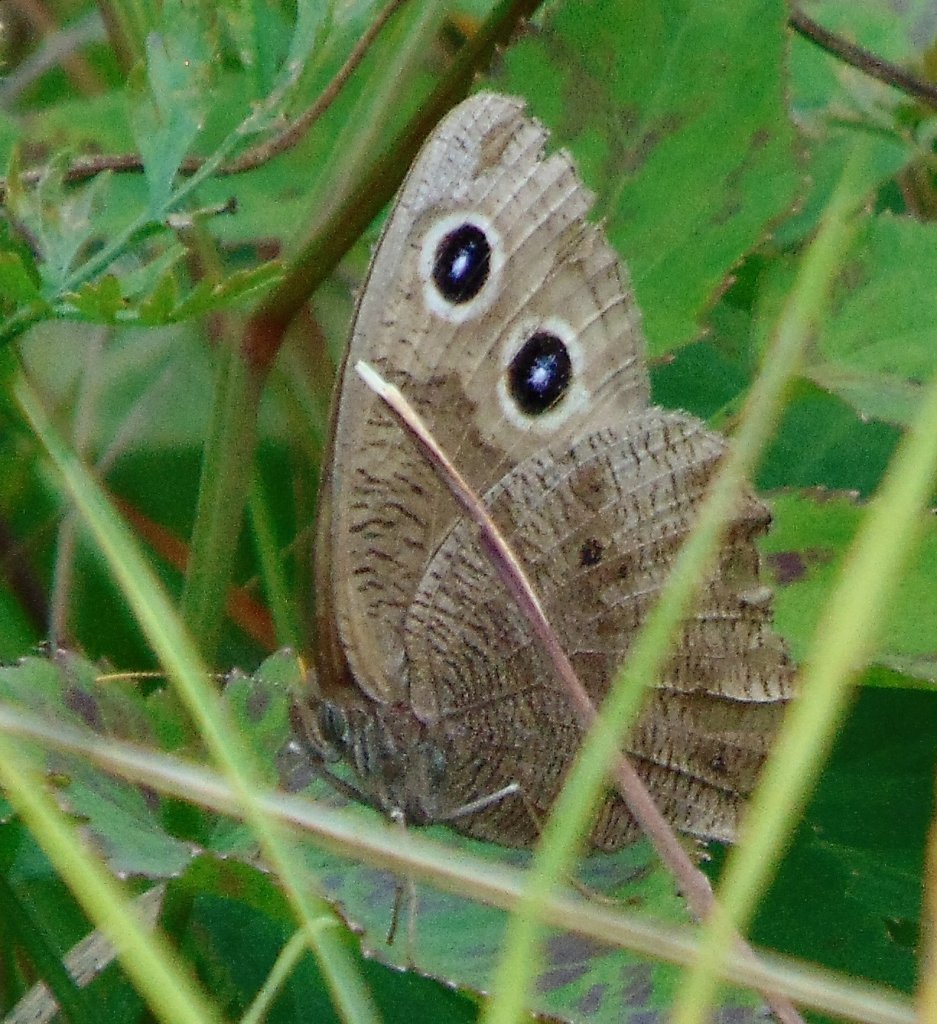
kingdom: Animalia
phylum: Arthropoda
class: Insecta
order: Lepidoptera
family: Nymphalidae
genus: Cercyonis
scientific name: Cercyonis pegala
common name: Common Wood-Nymph
